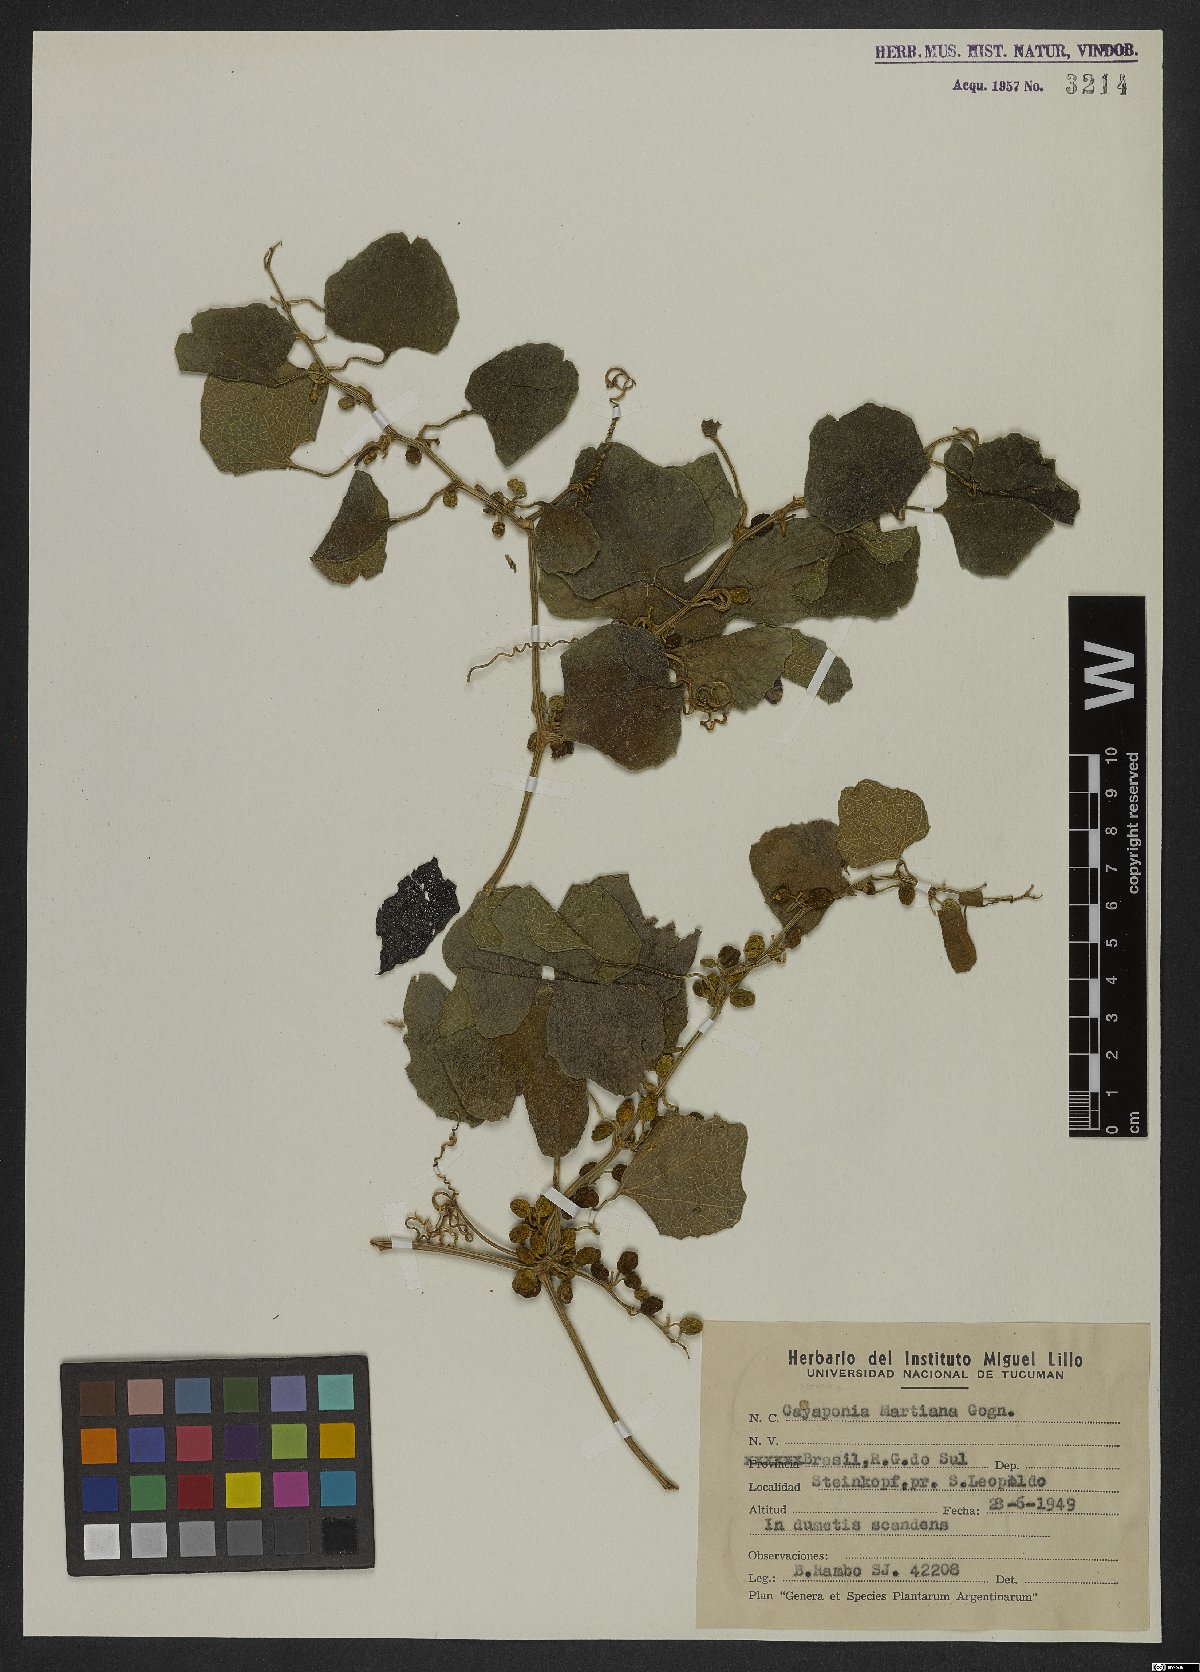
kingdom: Plantae
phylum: Tracheophyta
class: Magnoliopsida
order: Cucurbitales
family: Cucurbitaceae
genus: Cayaponia
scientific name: Cayaponia martiana
